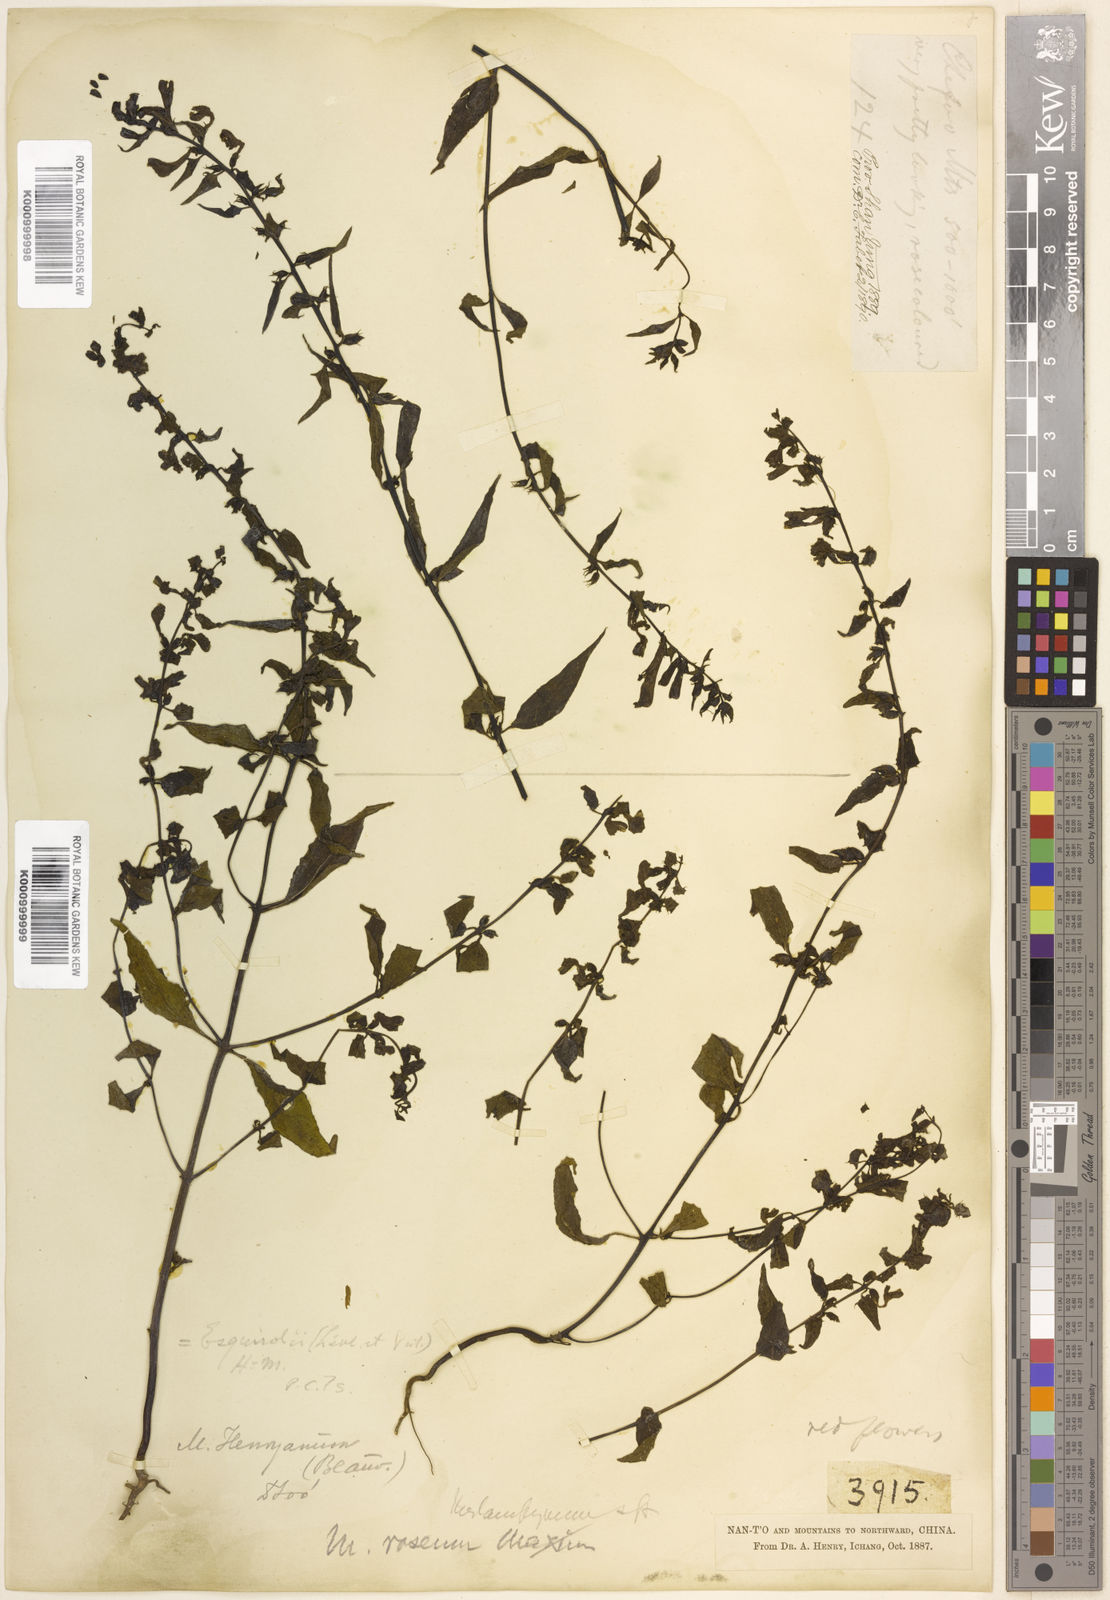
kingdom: Plantae
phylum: Tracheophyta
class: Magnoliopsida
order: Lamiales
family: Orobanchaceae
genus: Melampyrum
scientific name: Melampyrum
